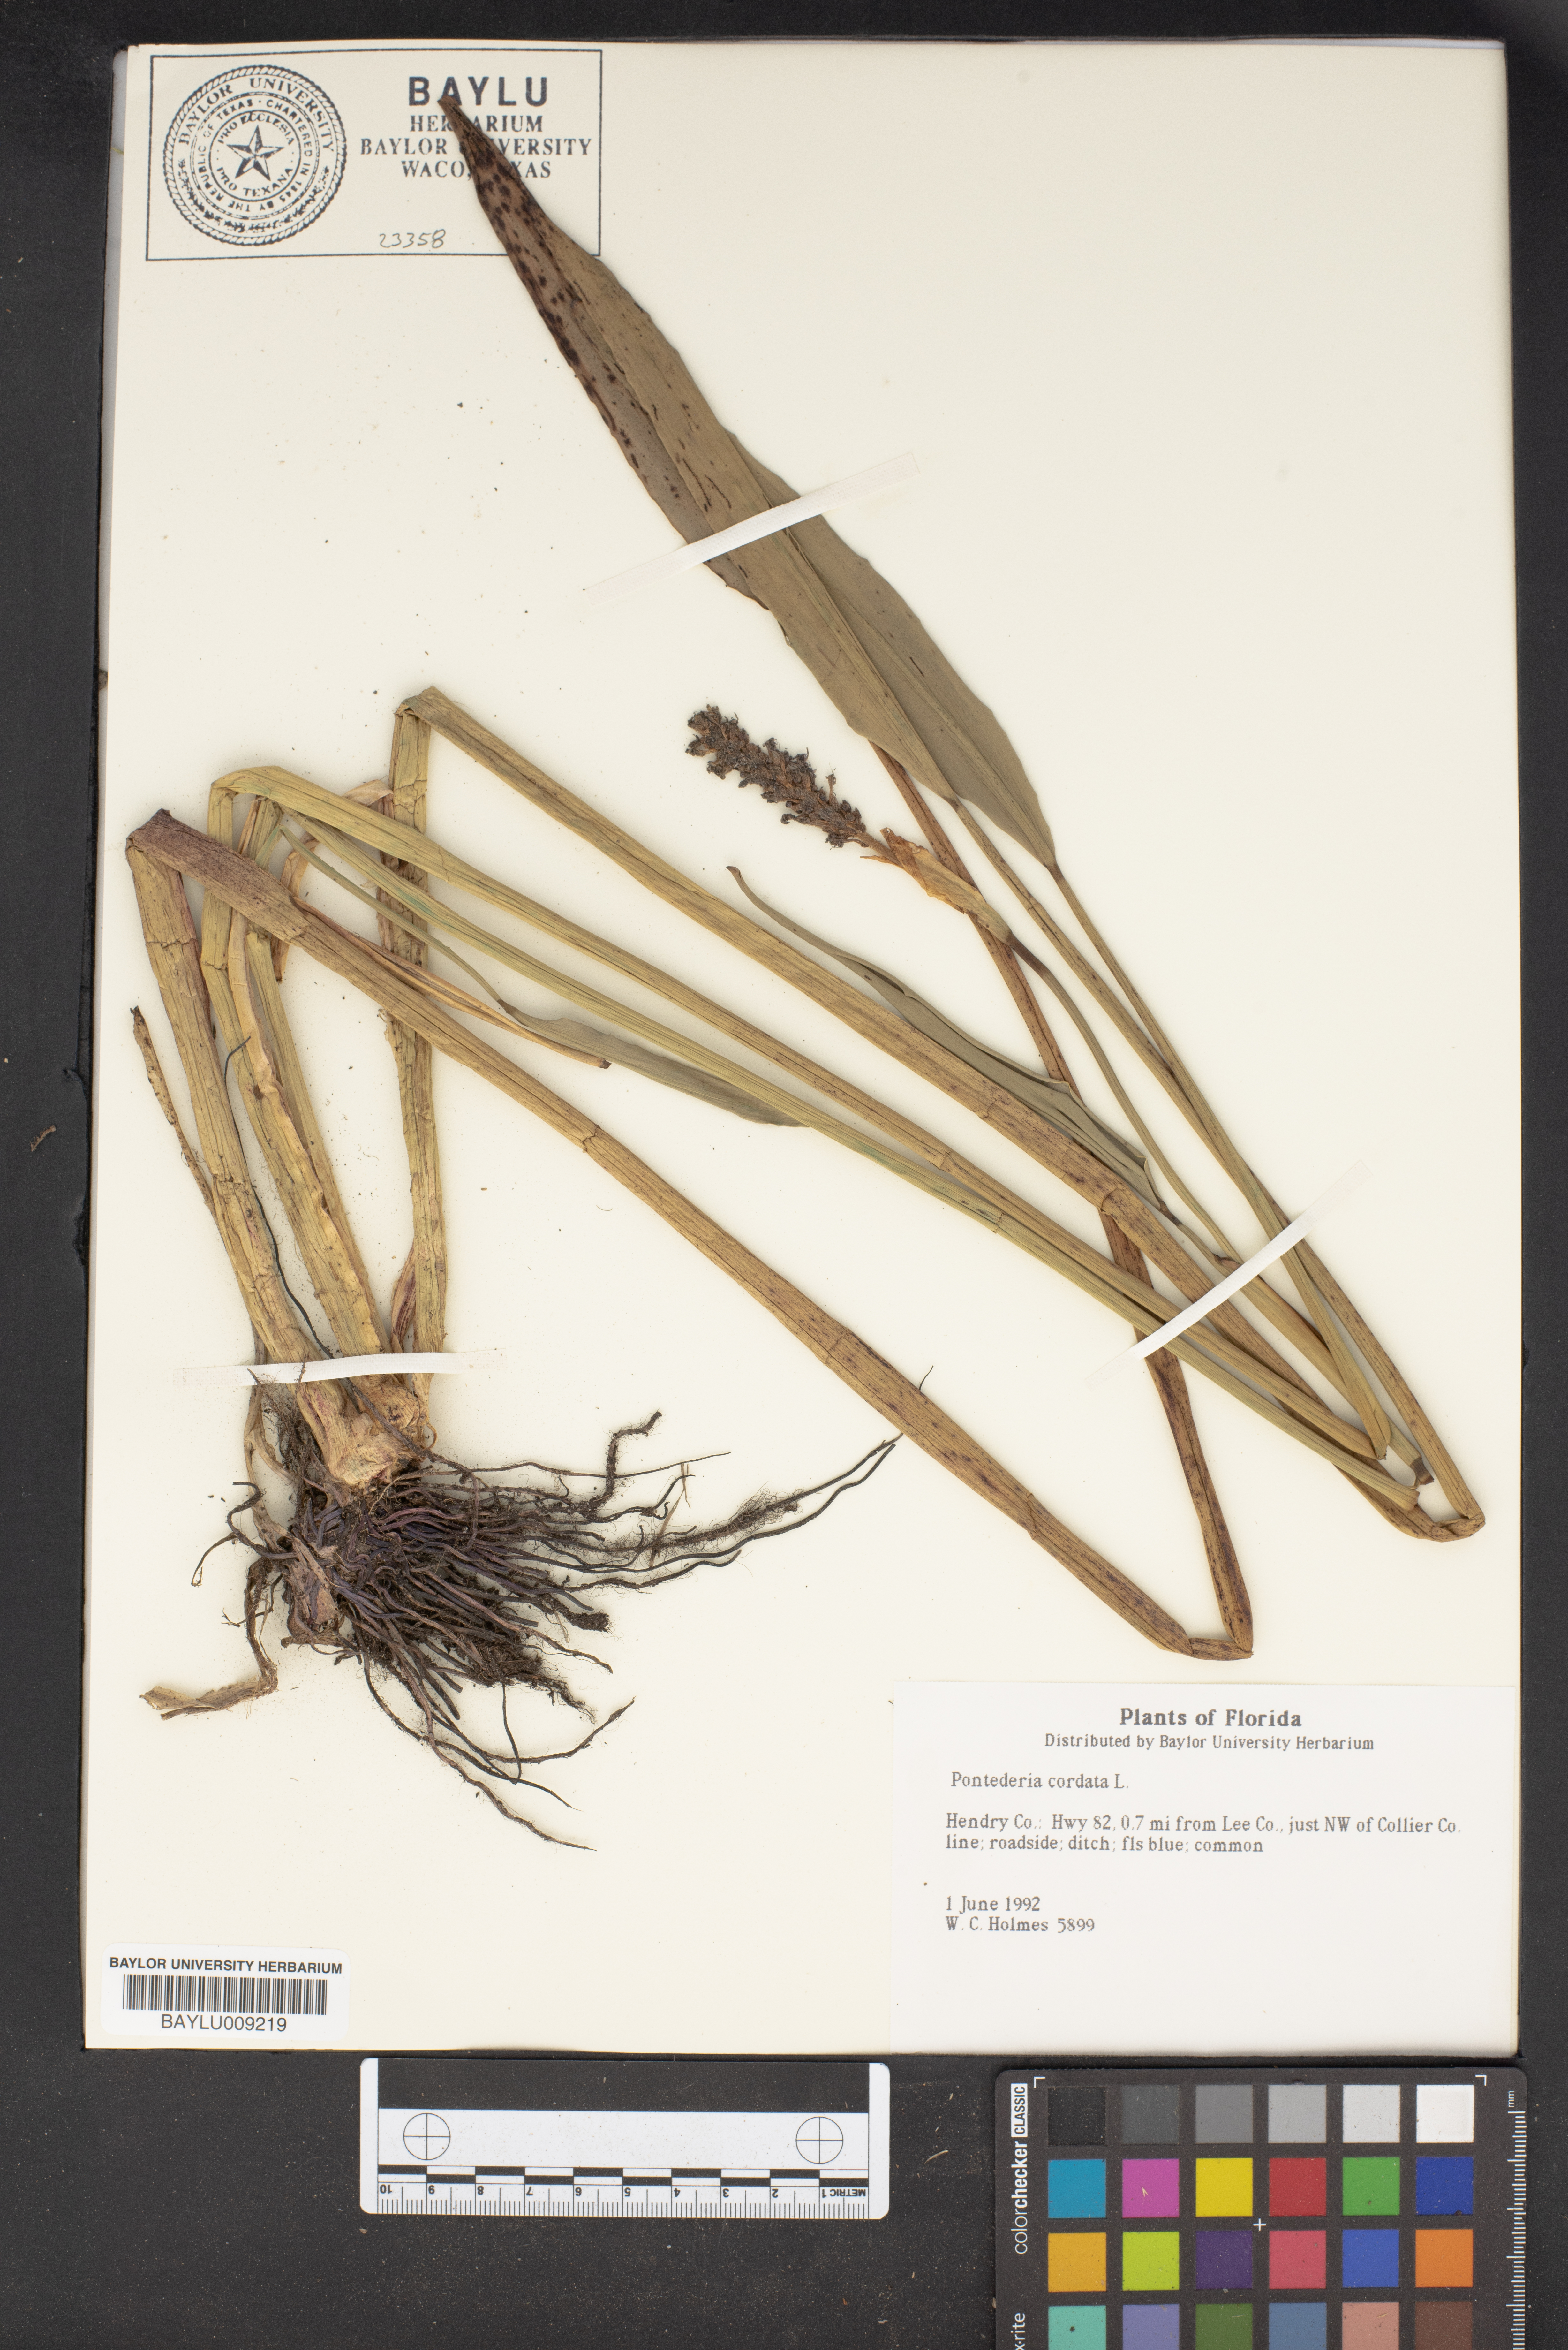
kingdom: Plantae
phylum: Tracheophyta
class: Liliopsida
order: Commelinales
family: Pontederiaceae
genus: Pontederia
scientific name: Pontederia cordata
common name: Pickerelweed
